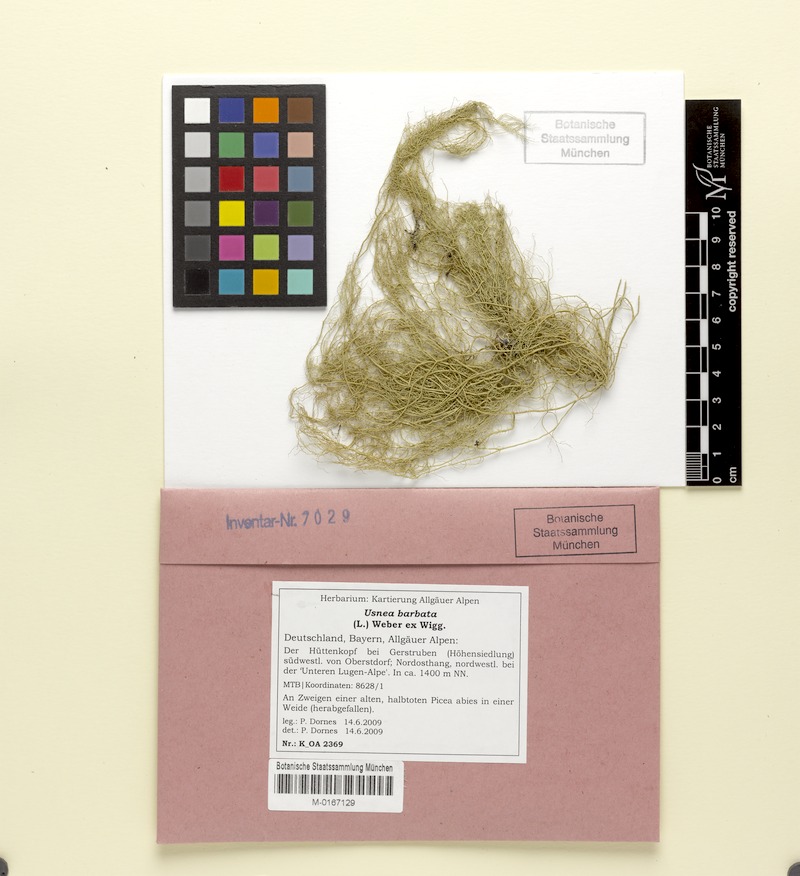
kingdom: Fungi
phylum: Ascomycota
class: Lecanoromycetes
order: Lecanorales
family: Parmeliaceae
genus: Usnea
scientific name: Usnea barbata
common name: Old man's beard lichen
